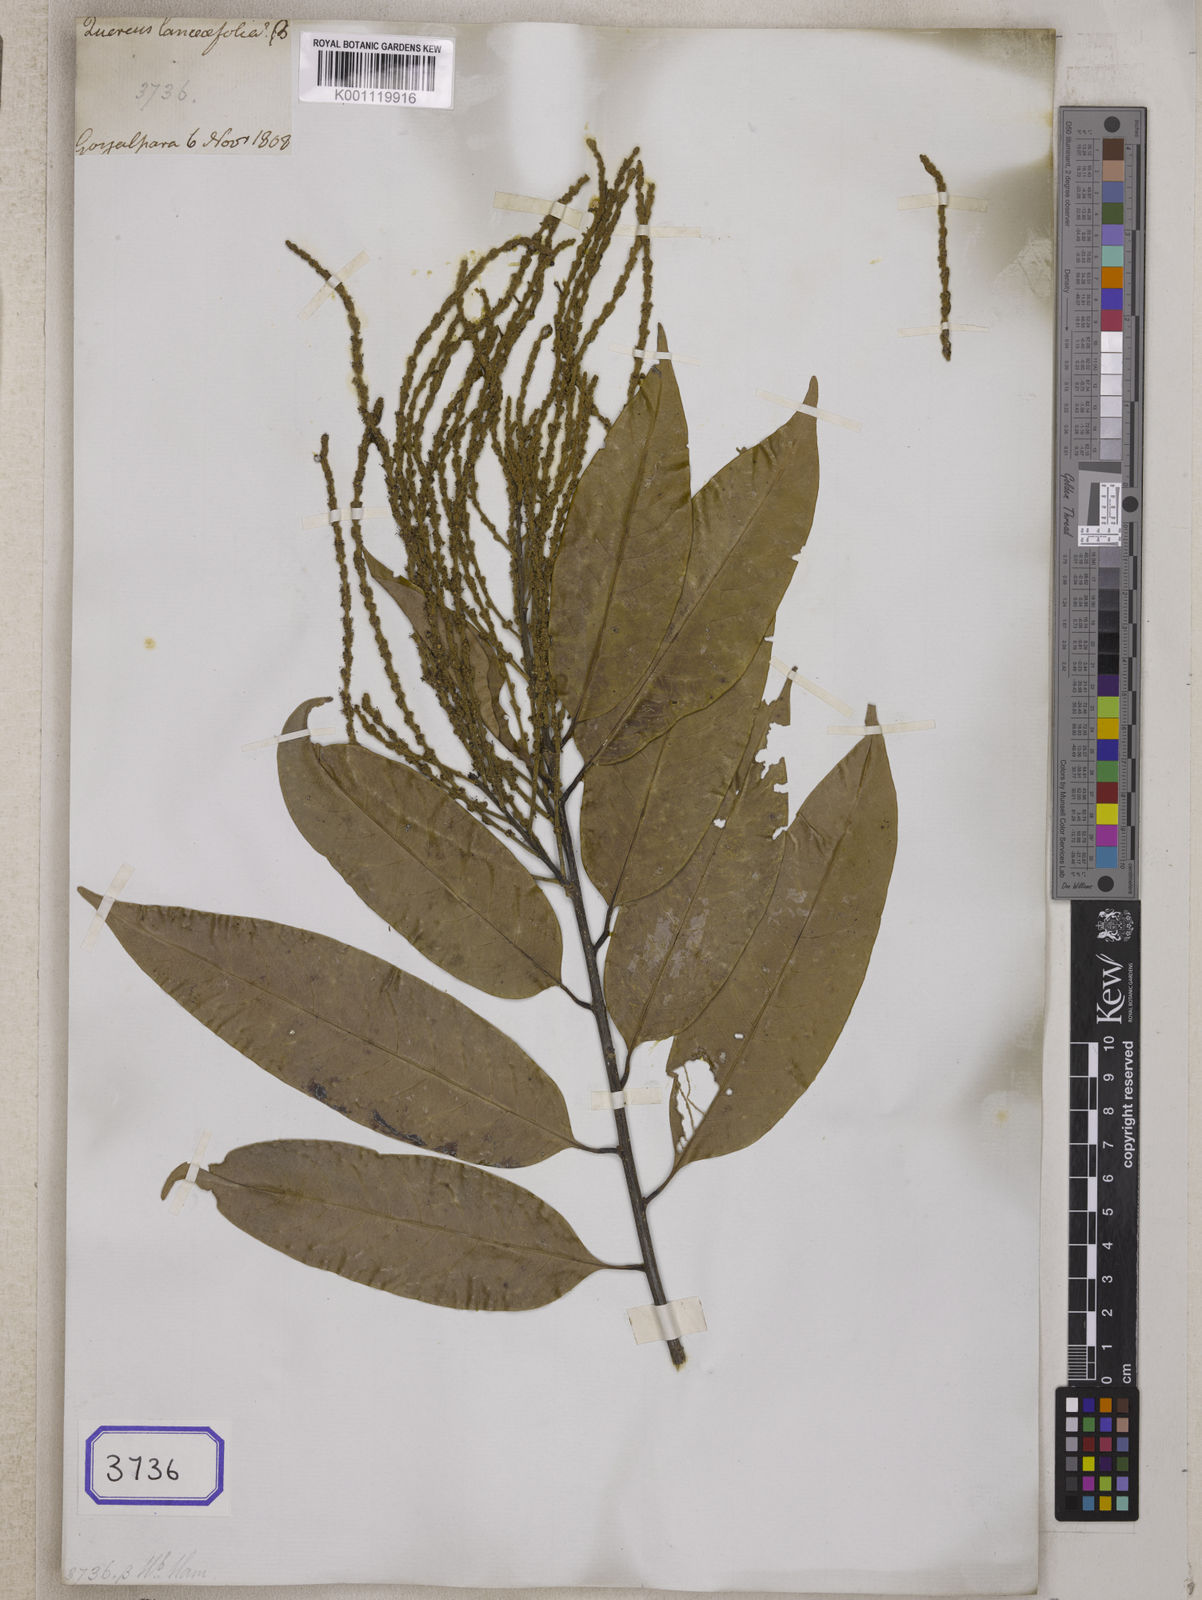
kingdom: Plantae
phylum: Tracheophyta
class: Magnoliopsida
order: Fagales
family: Fagaceae
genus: Castanopsis
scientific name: Castanopsis armata
